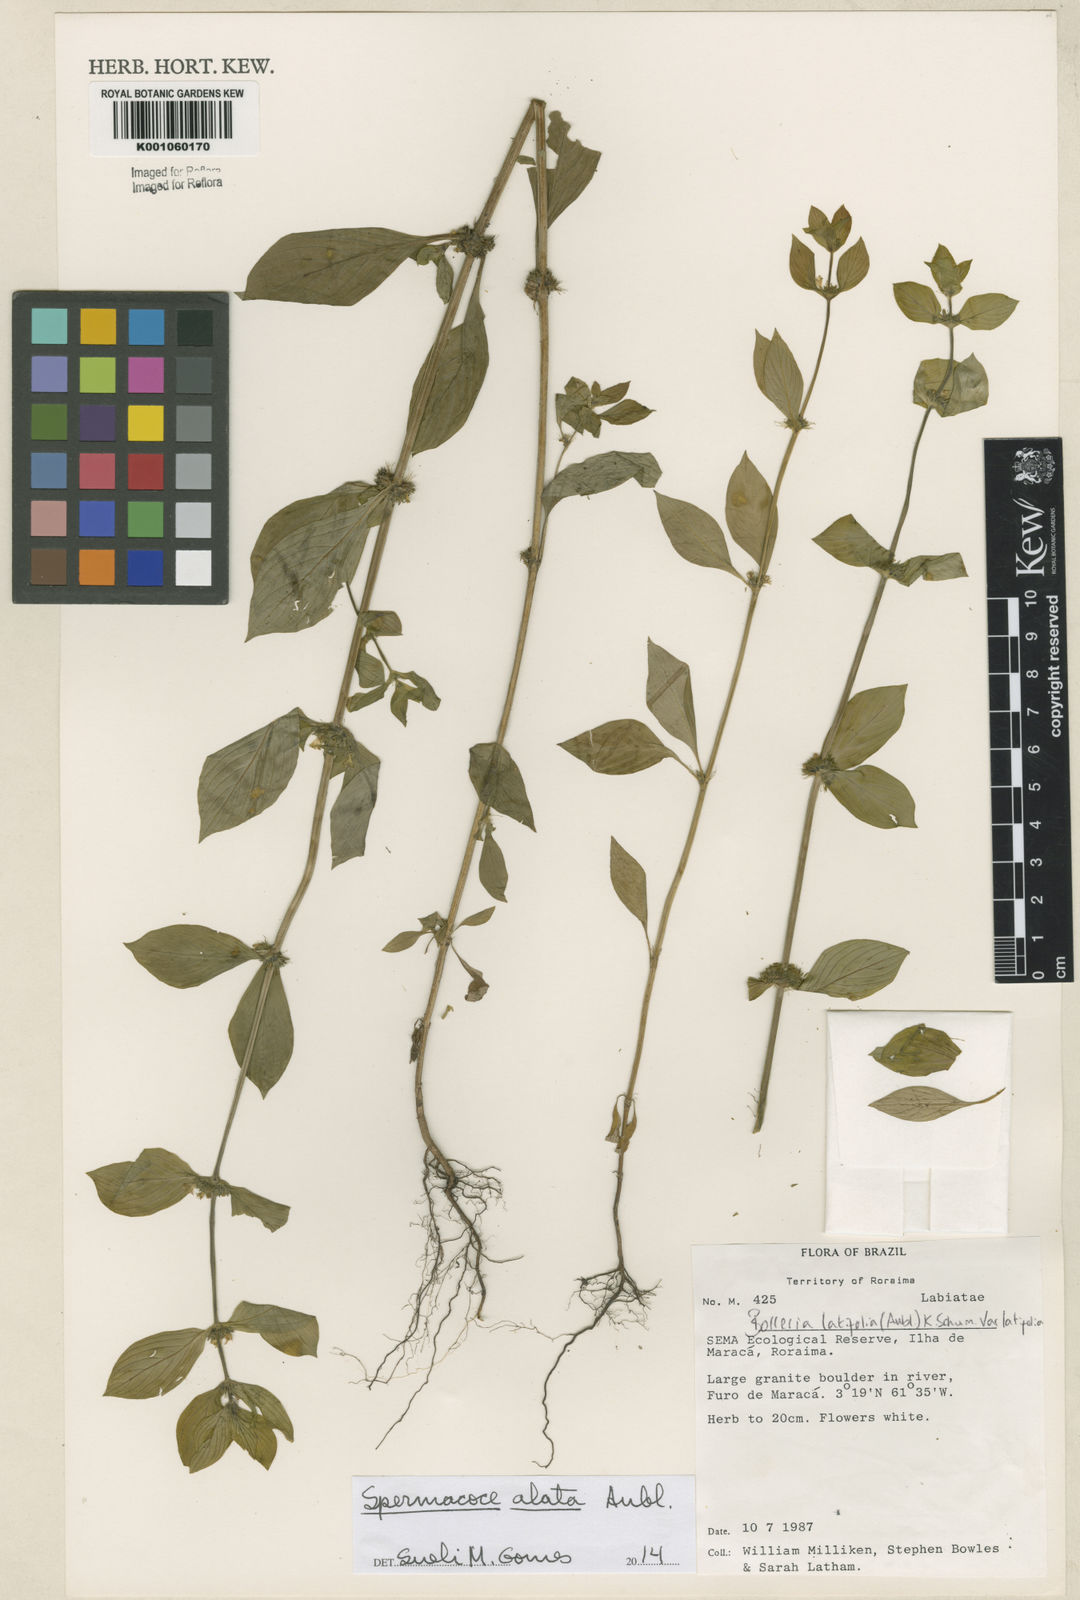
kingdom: Plantae
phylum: Tracheophyta
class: Magnoliopsida
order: Gentianales
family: Rubiaceae
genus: Spermacoce
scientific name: Spermacoce
